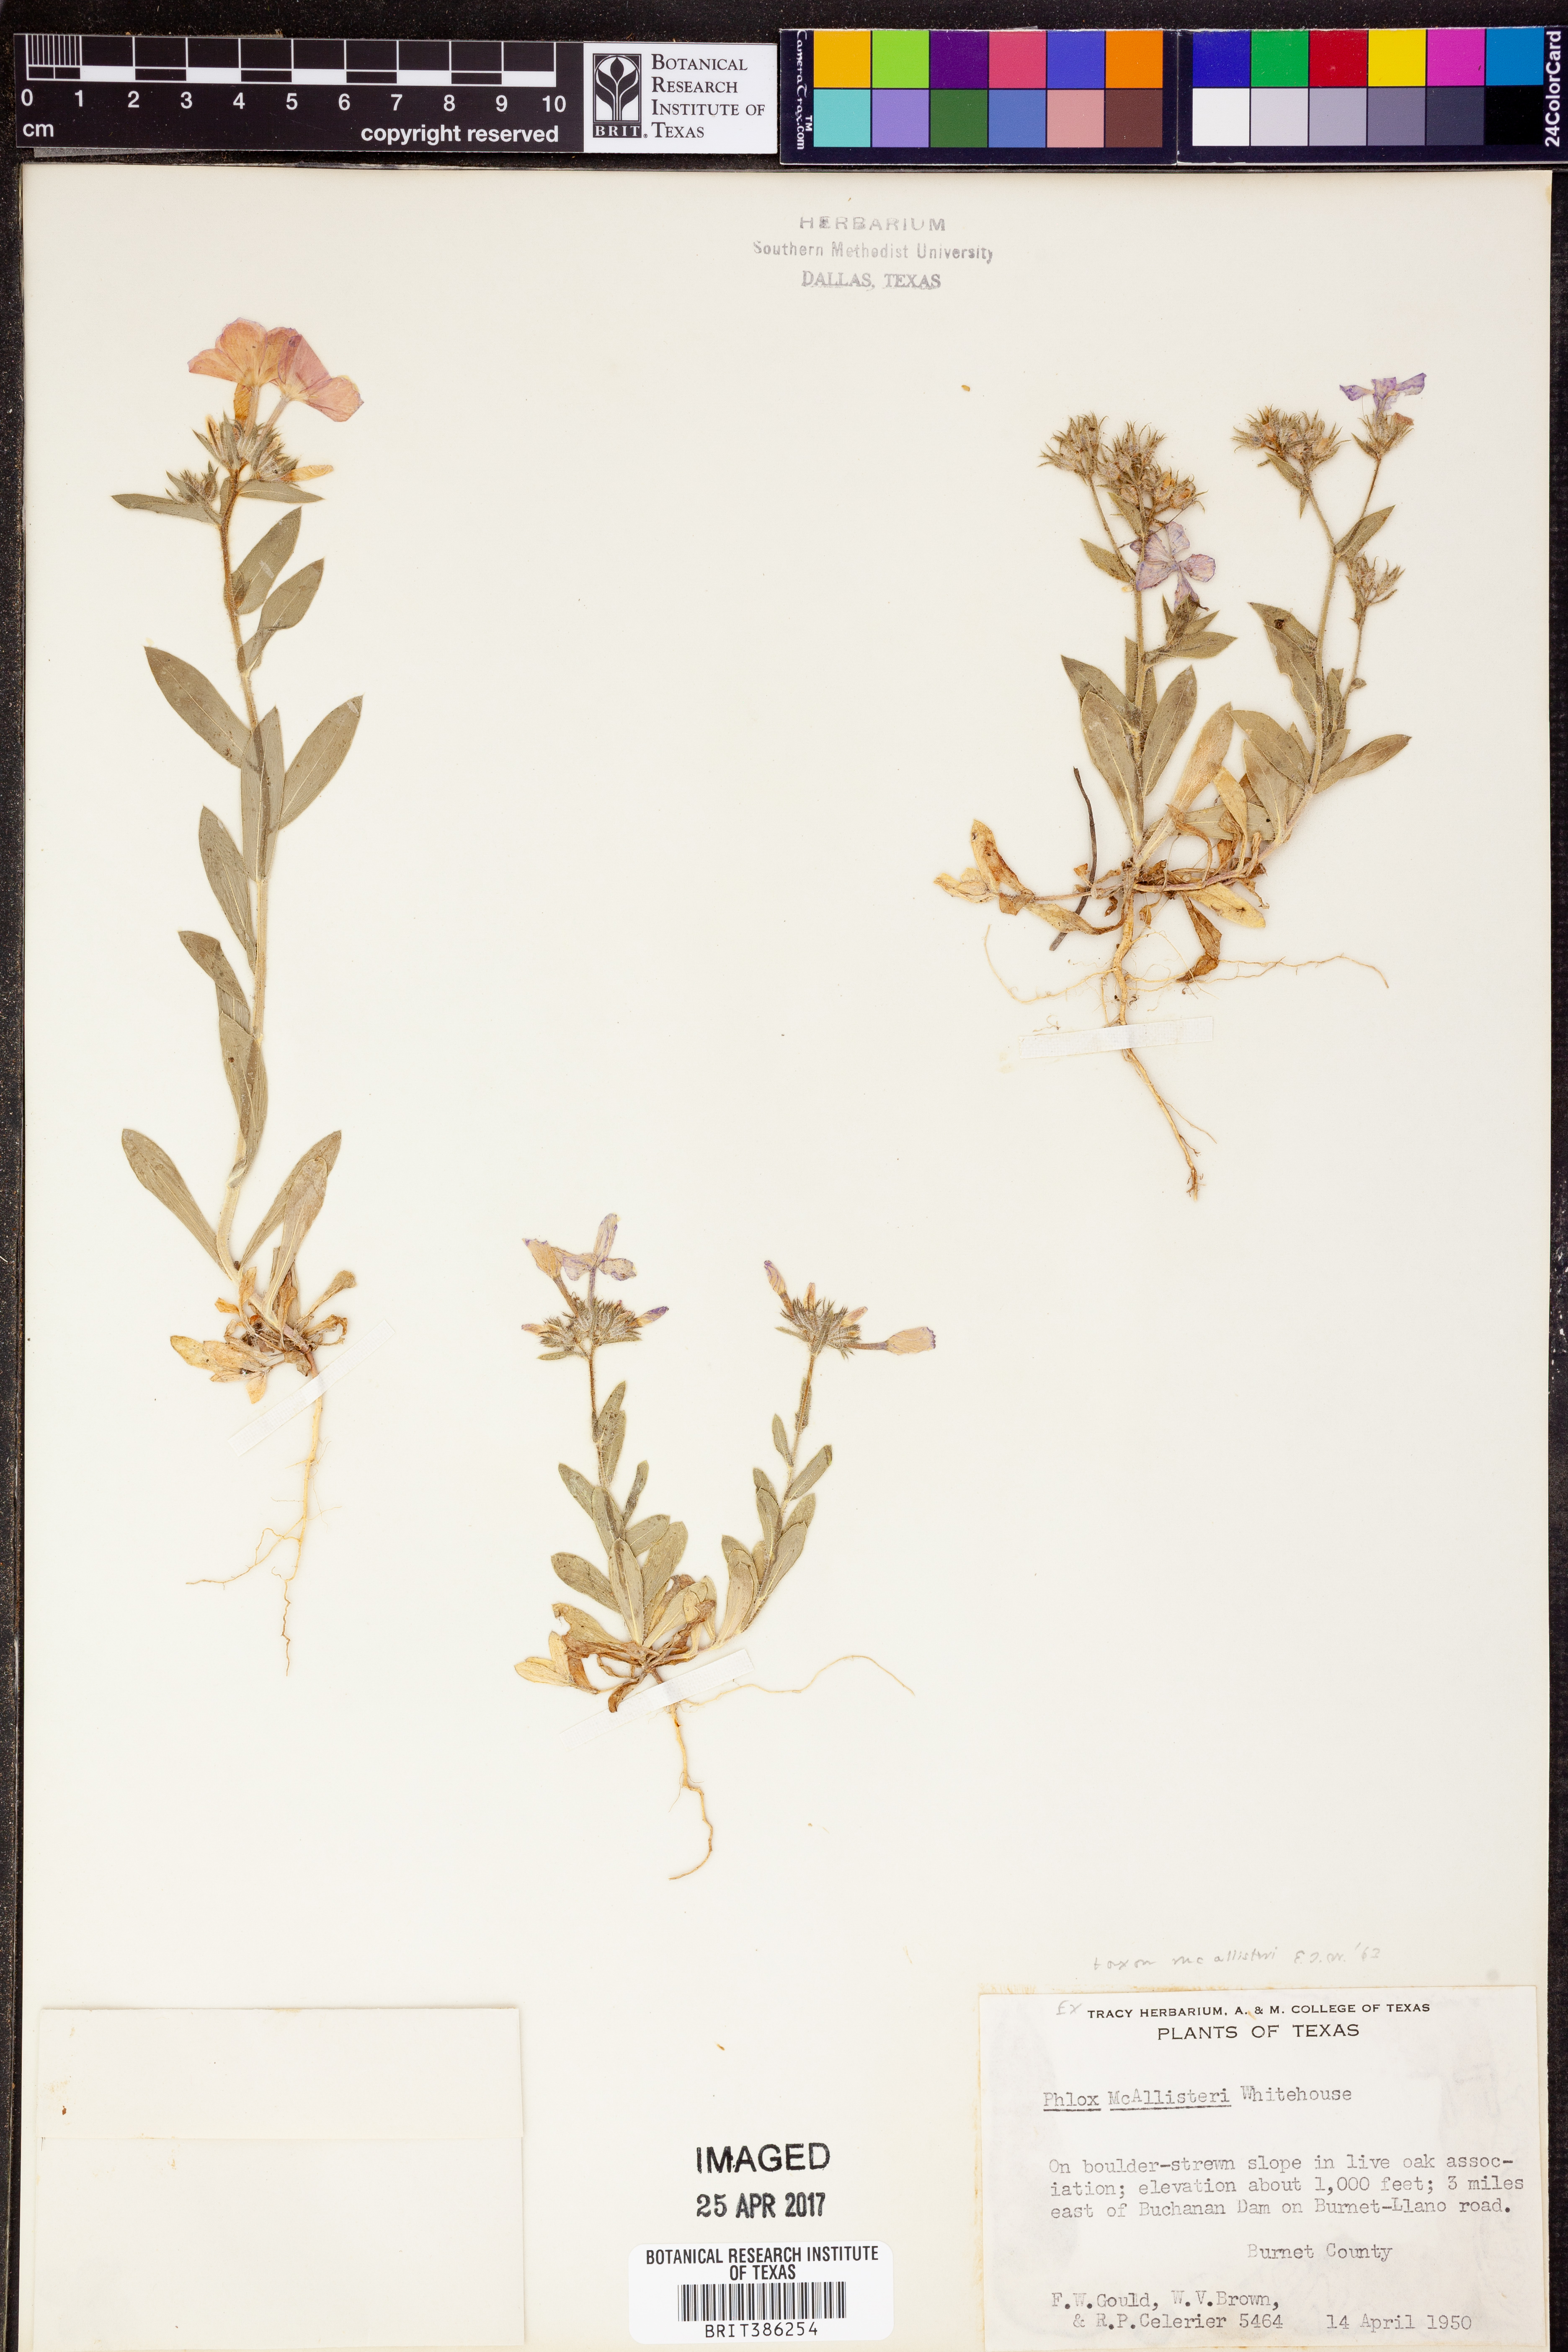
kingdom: Plantae
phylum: Tracheophyta
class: Magnoliopsida
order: Ericales
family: Polemoniaceae
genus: Phlox
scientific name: Phlox drummondii
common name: Drummond's phlox
